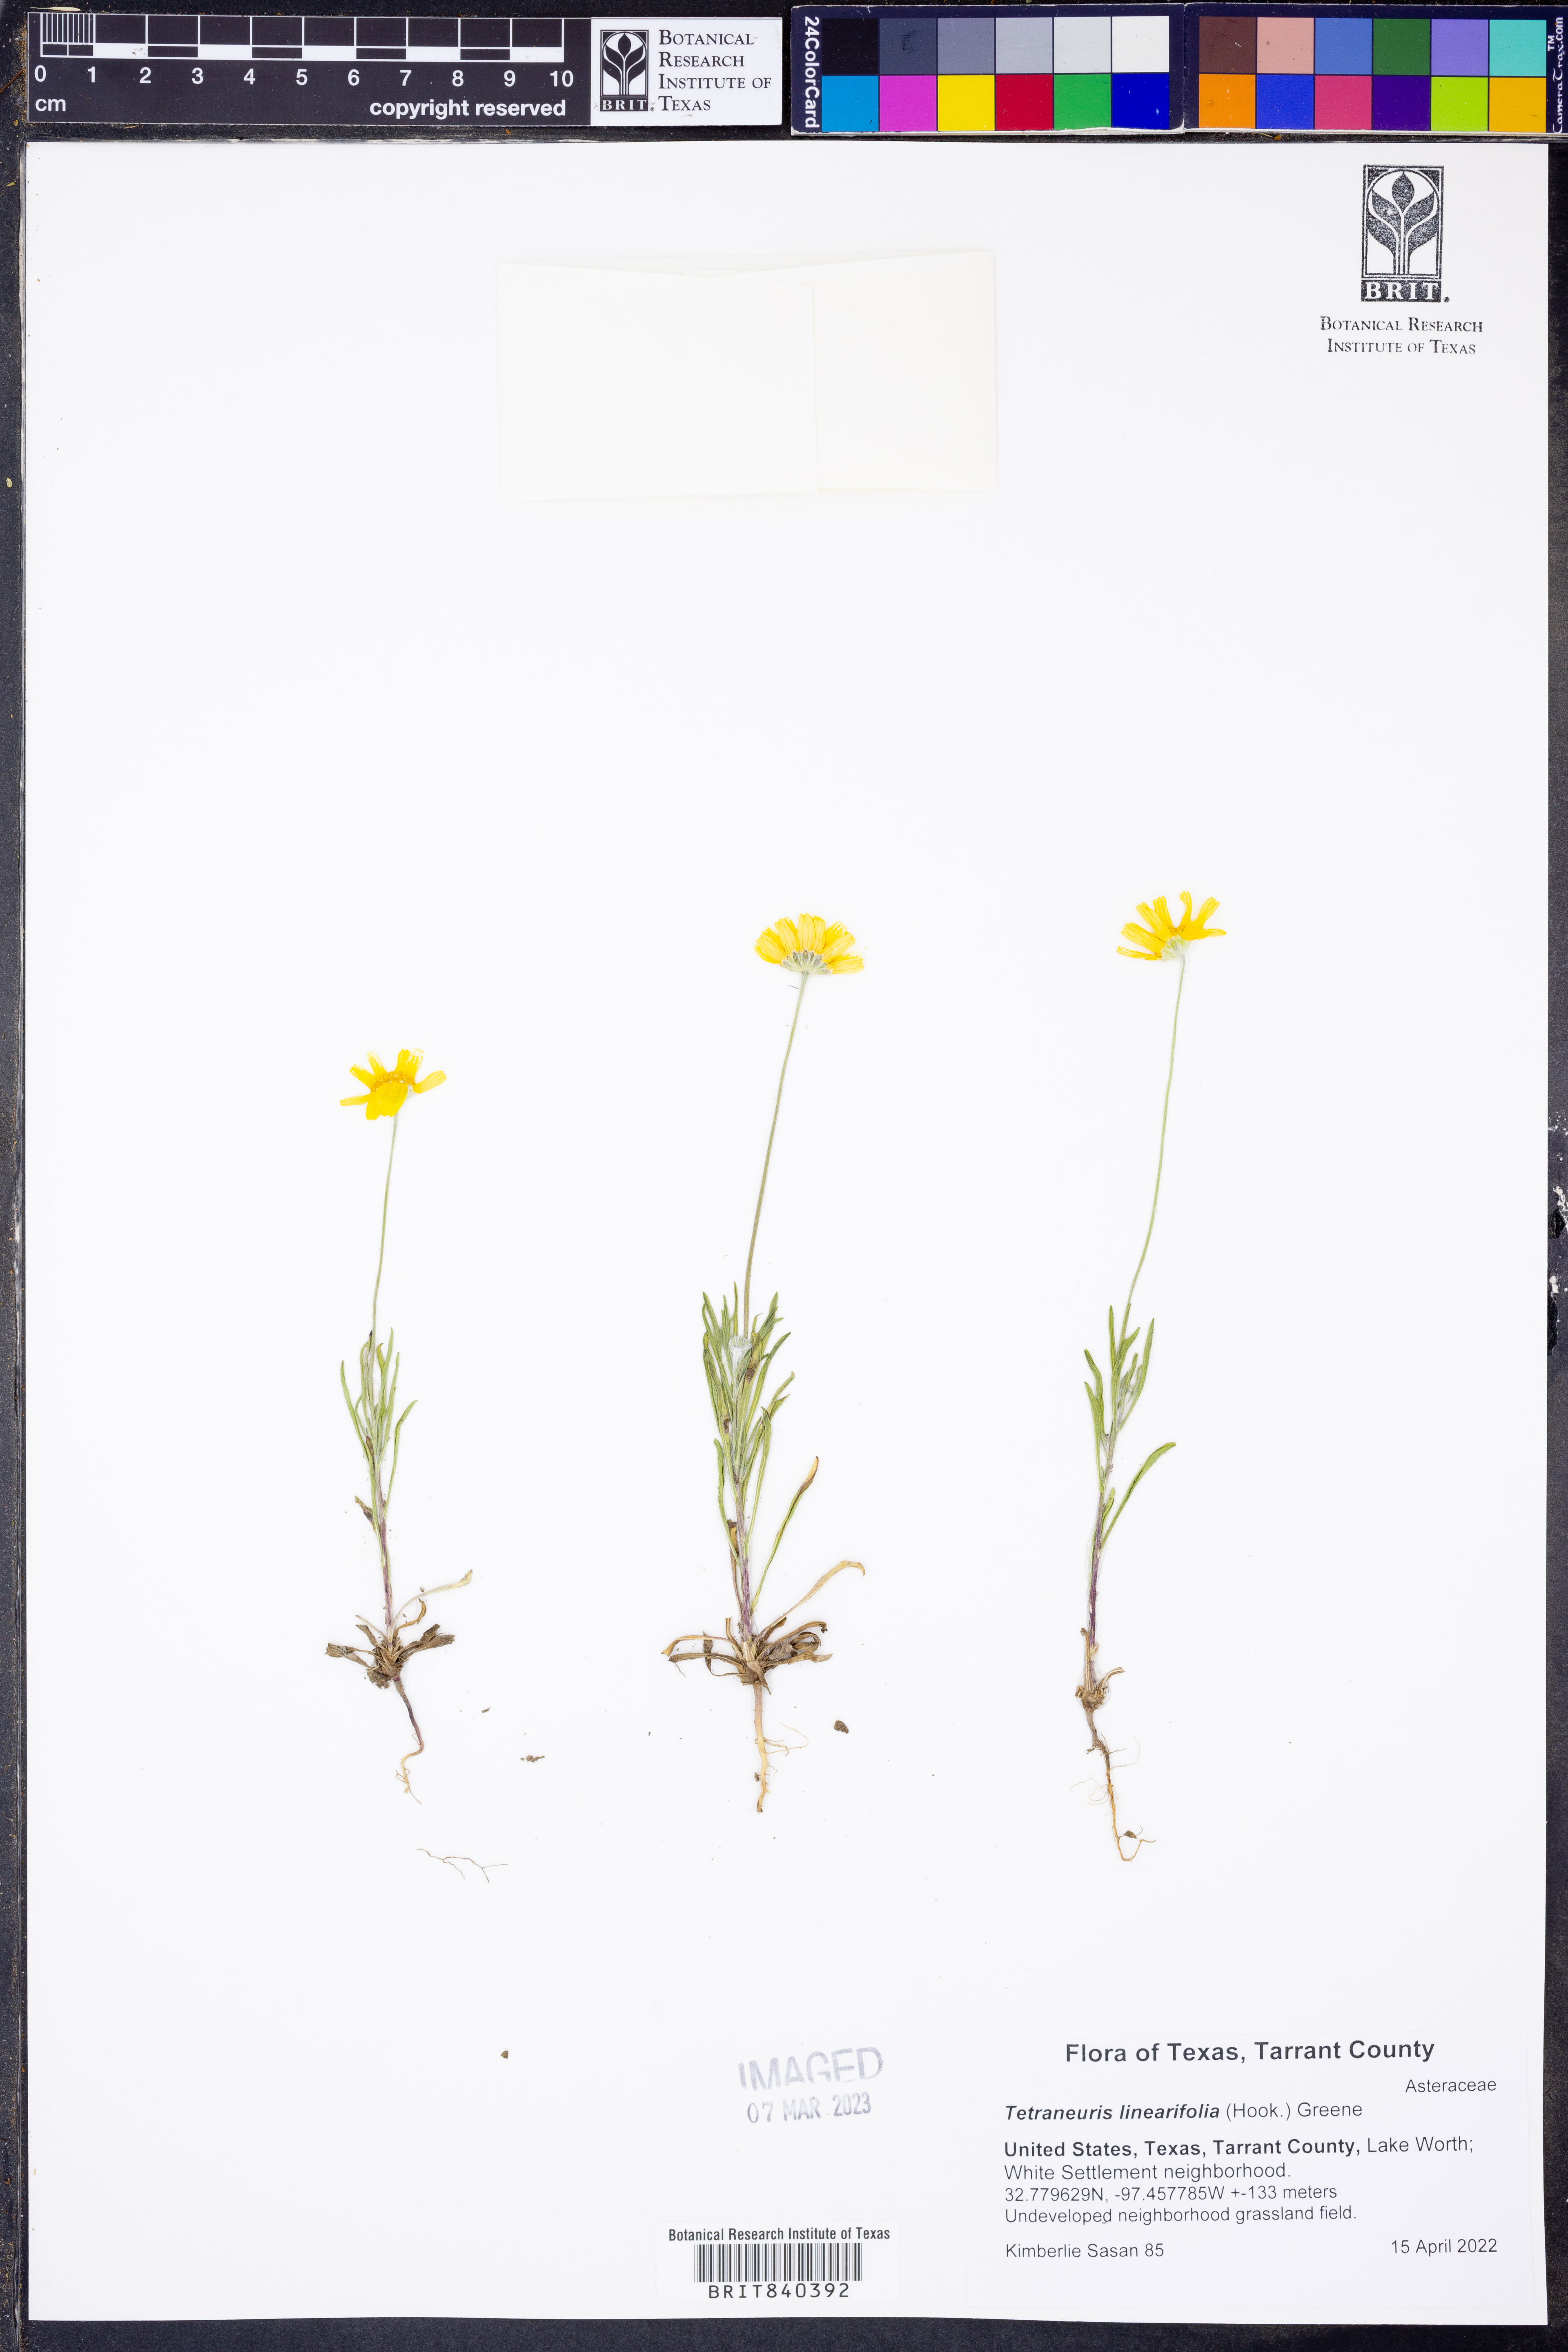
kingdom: Plantae
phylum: Tracheophyta
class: Magnoliopsida
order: Asterales
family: Asteraceae
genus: Tetraneuris
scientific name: Tetraneuris linearifolia
